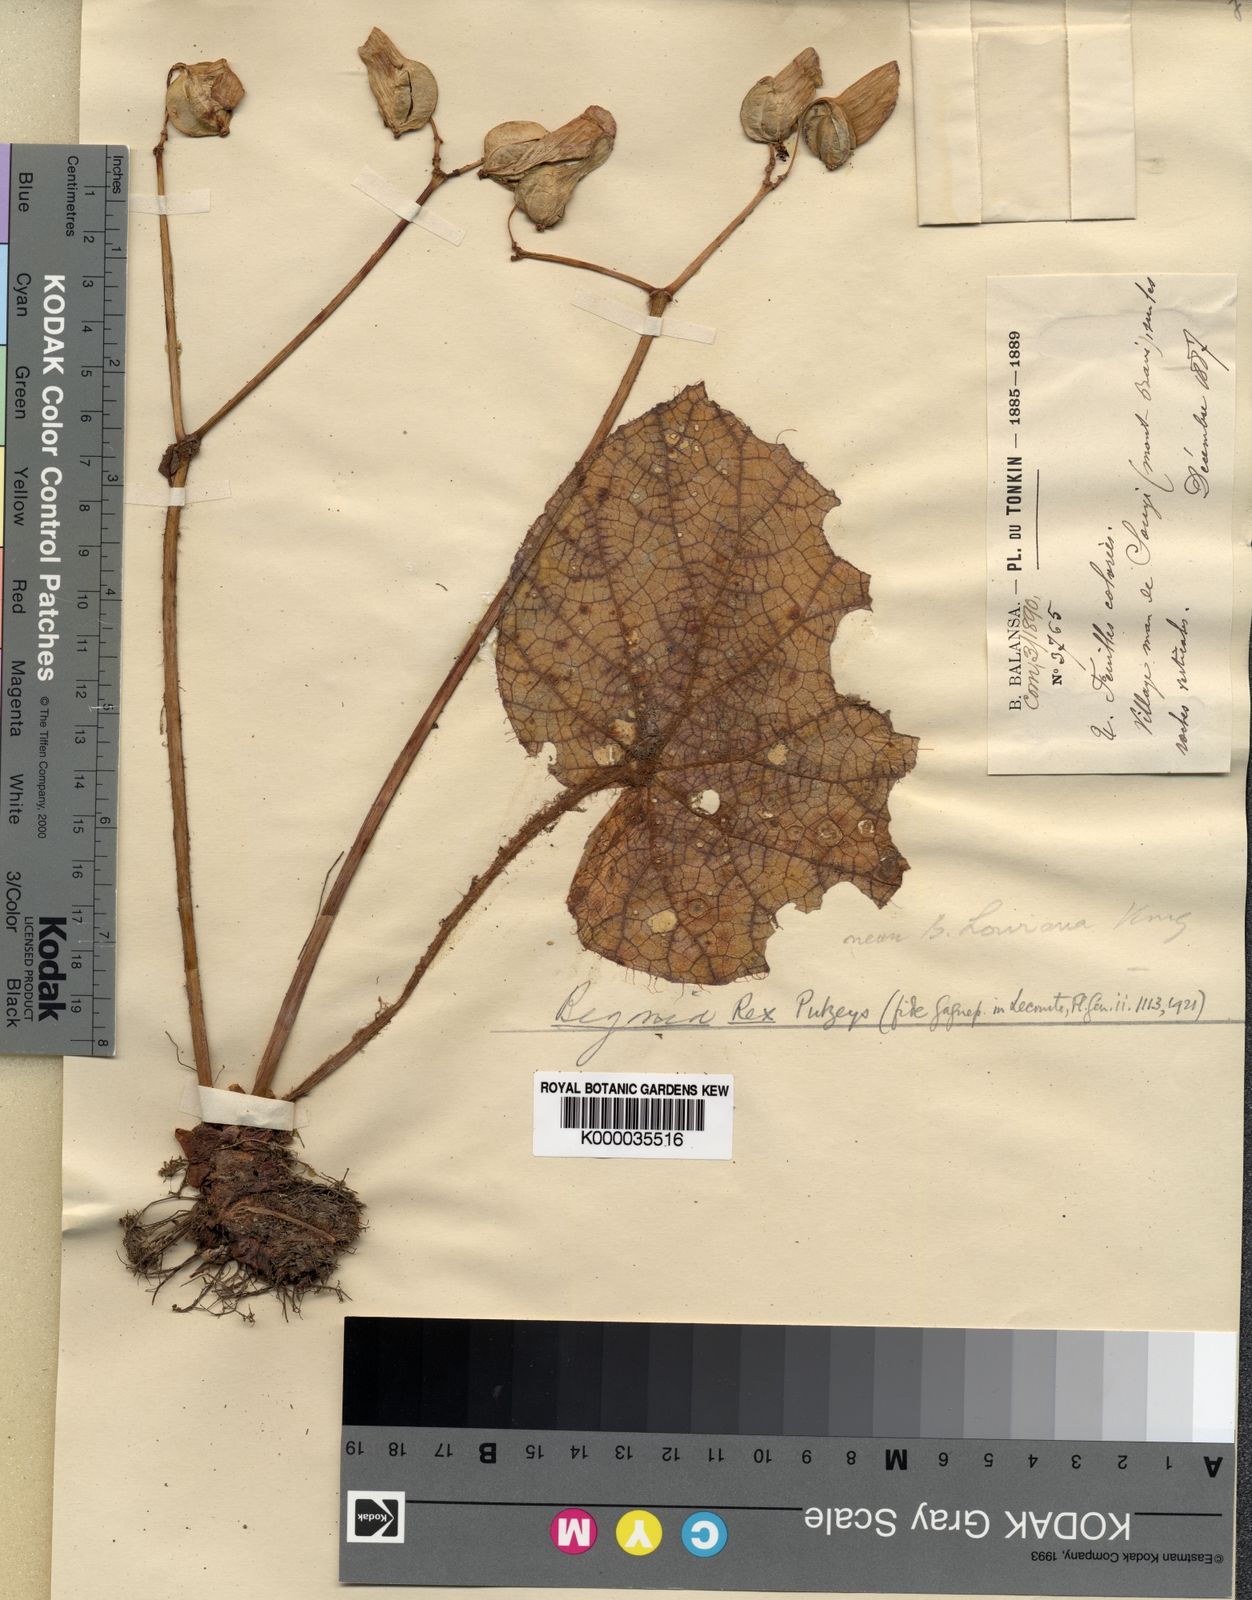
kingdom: Plantae
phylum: Tracheophyta
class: Magnoliopsida
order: Cucurbitales
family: Begoniaceae
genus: Begonia
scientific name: Begonia rex
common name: Painted-leaf begonia
